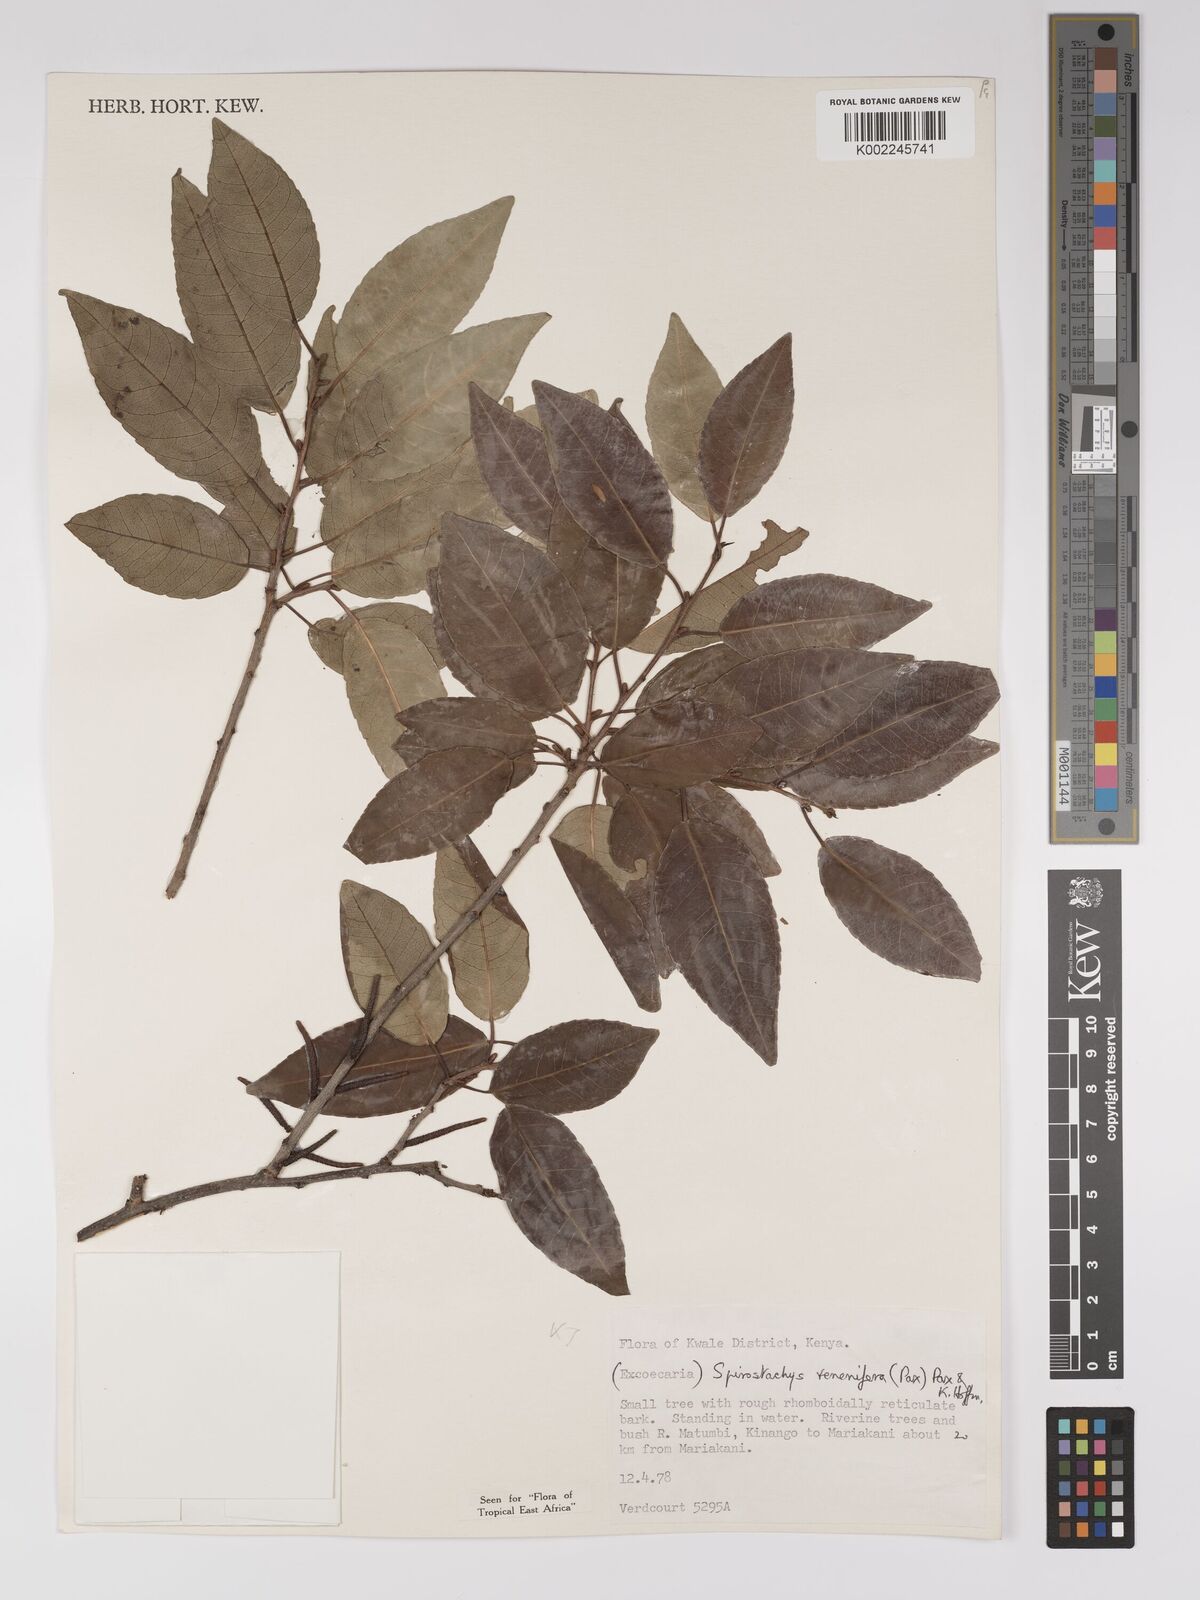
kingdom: Plantae
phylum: Tracheophyta
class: Magnoliopsida
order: Malpighiales
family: Euphorbiaceae
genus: Spirostachys
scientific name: Spirostachys venenifera
